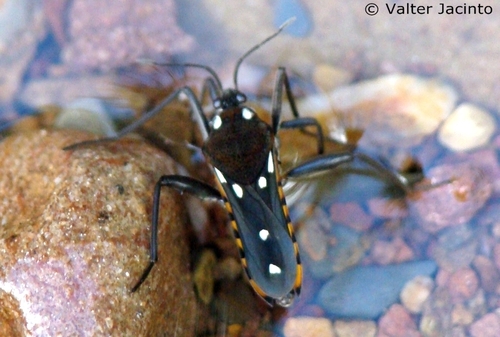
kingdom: Animalia
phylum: Arthropoda
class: Insecta
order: Hemiptera
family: Veliidae
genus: Velia
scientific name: Velia
